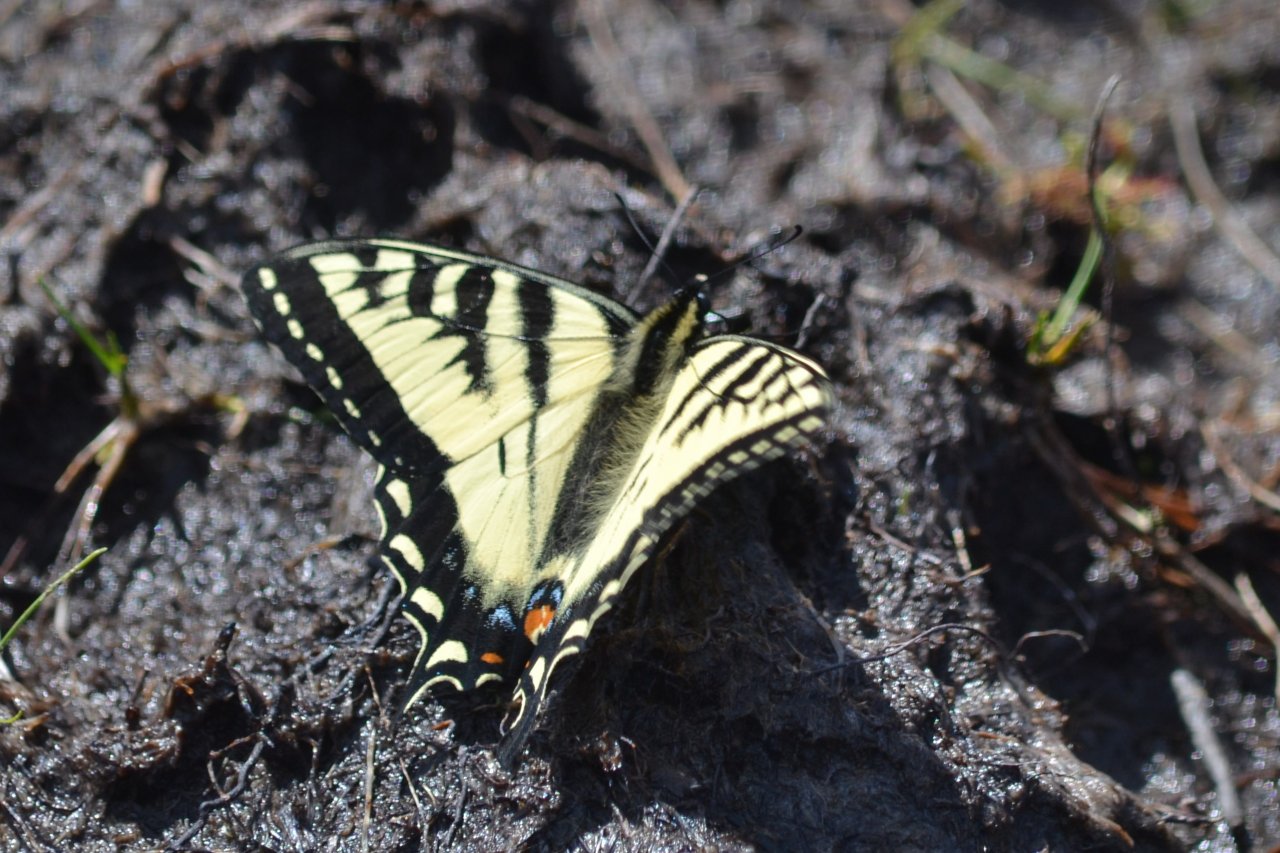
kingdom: Animalia
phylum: Arthropoda
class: Insecta
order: Lepidoptera
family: Papilionidae
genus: Pterourus
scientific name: Pterourus canadensis
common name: Canadian Tiger Swallowtail
